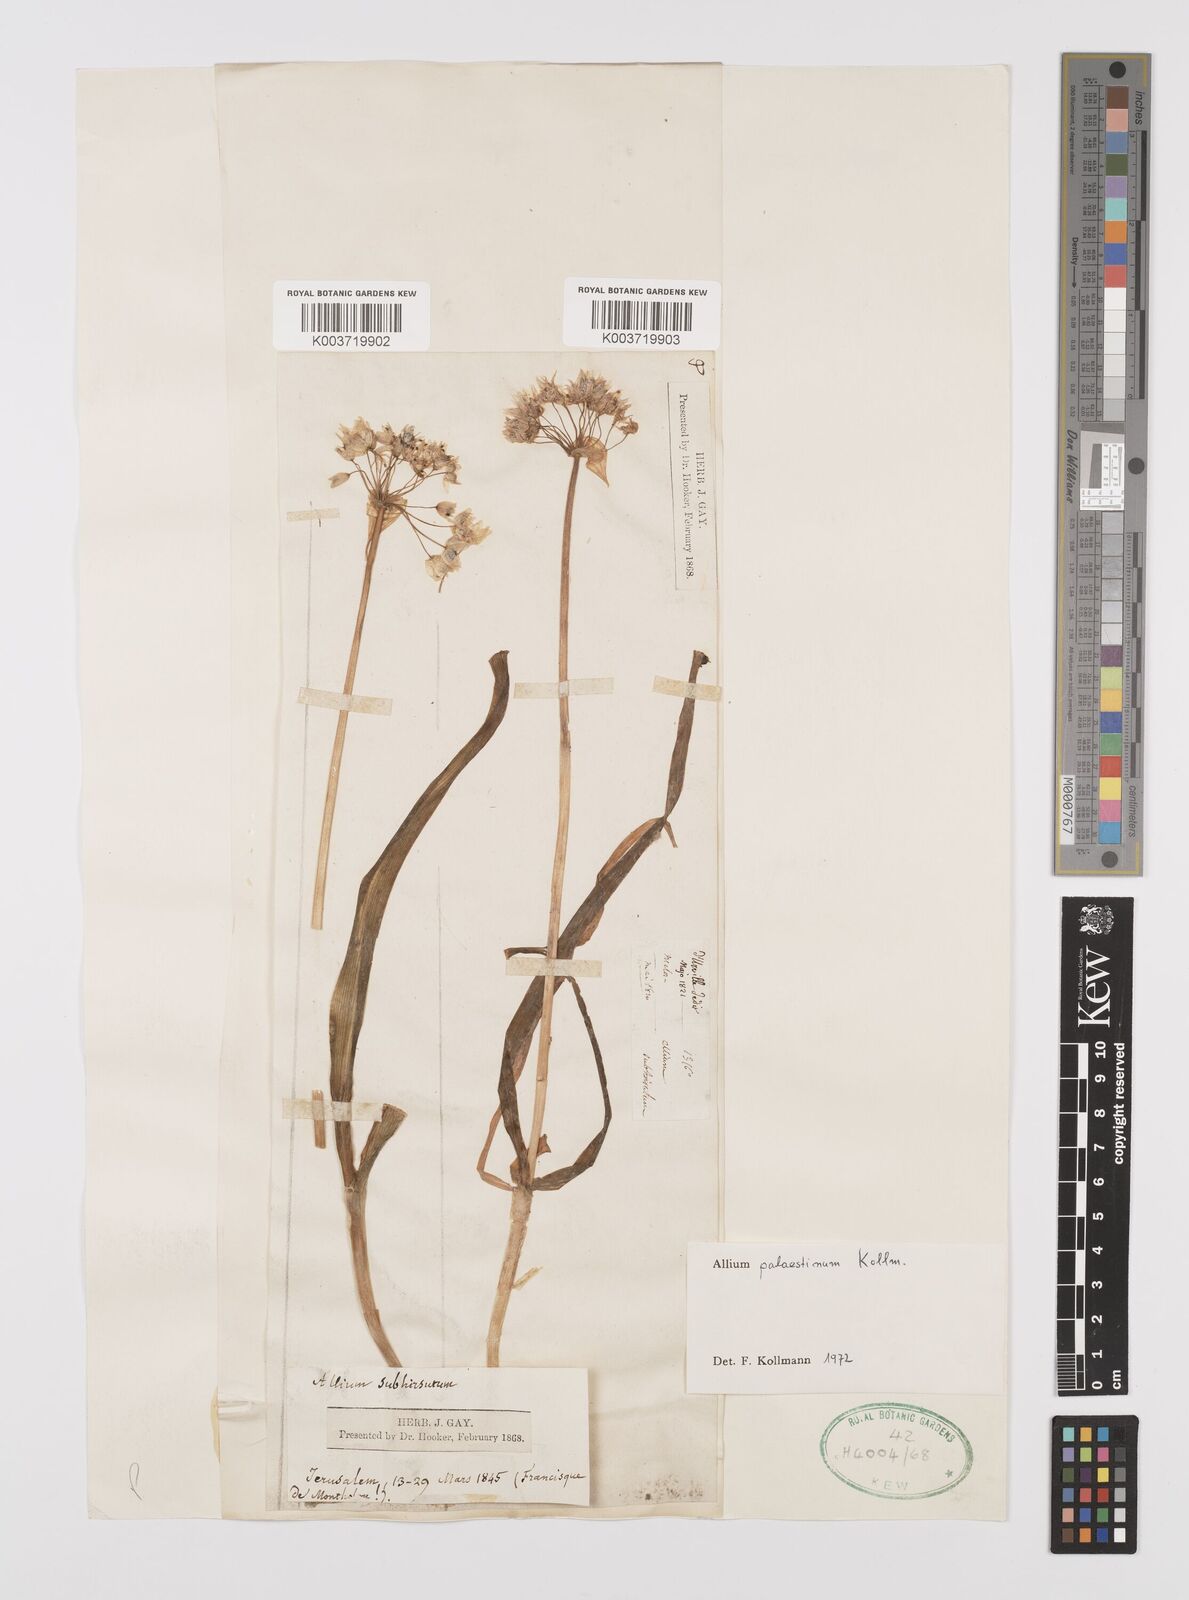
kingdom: Plantae
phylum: Tracheophyta
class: Liliopsida
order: Asparagales
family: Amaryllidaceae
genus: Allium
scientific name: Allium palaestinum
